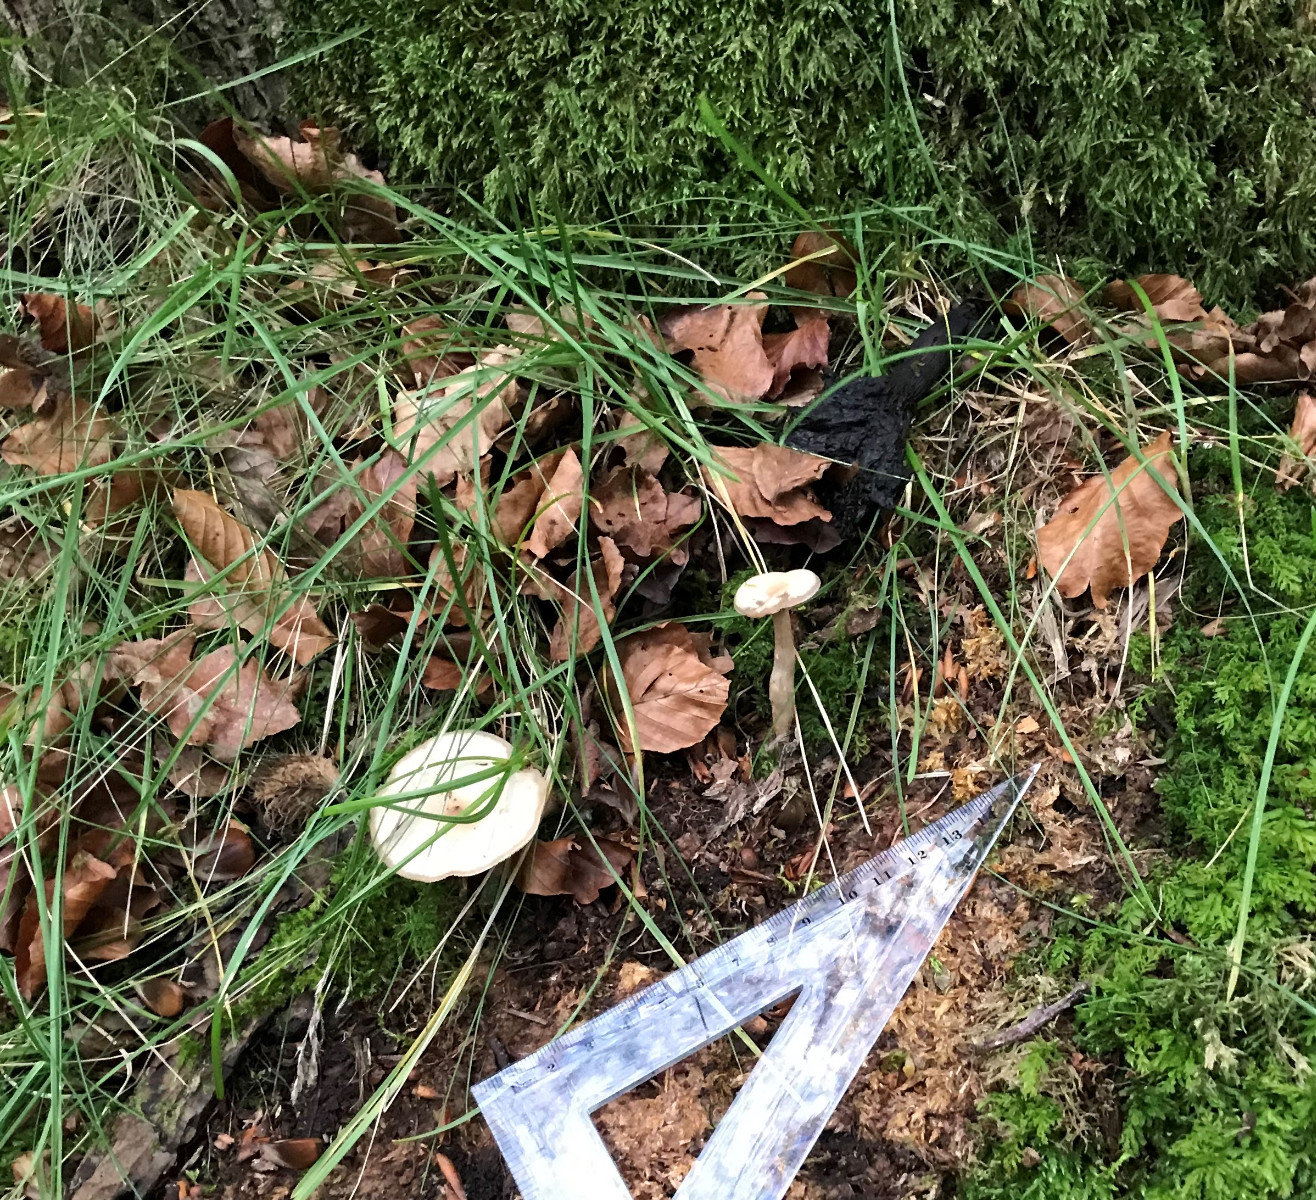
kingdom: Fungi
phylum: Basidiomycota
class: Agaricomycetes
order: Agaricales
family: Tricholomataceae
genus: Clitocybe
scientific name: Clitocybe fragrans
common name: vellugtende tragthat
